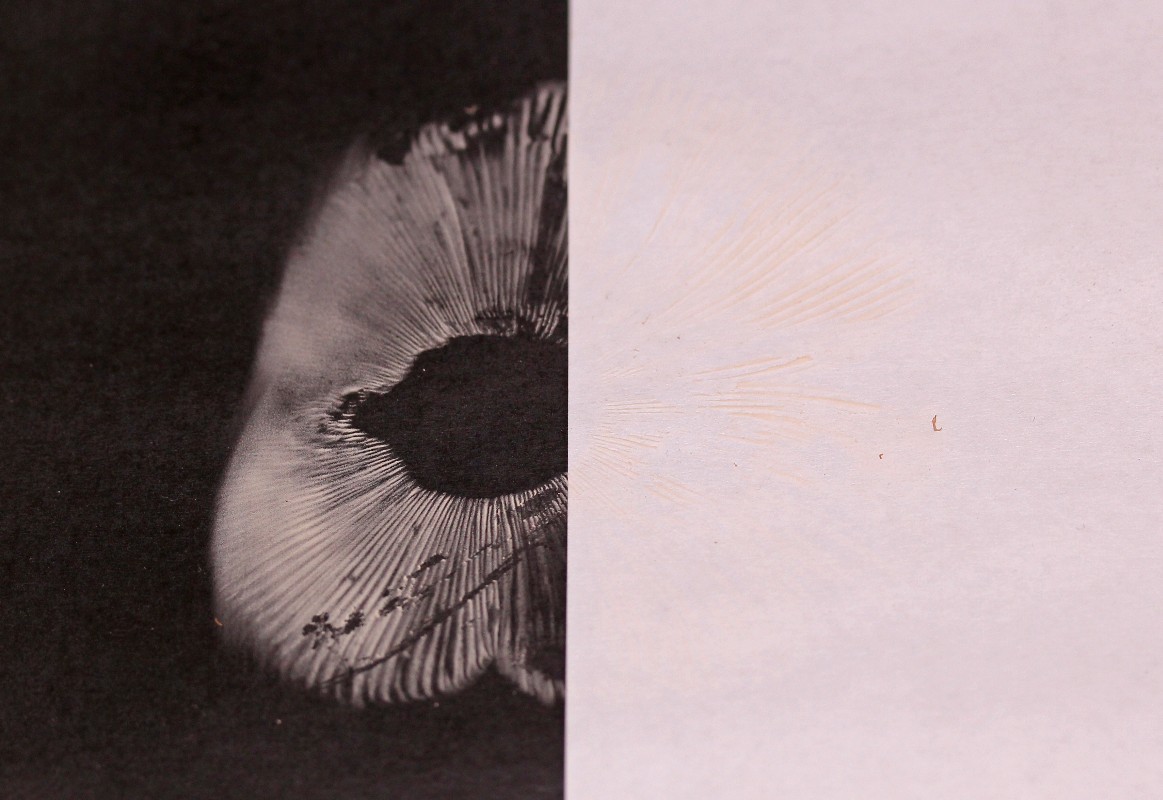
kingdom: Fungi
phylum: Basidiomycota
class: Agaricomycetes
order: Russulales
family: Russulaceae
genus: Russula
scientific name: Russula parazurea
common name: blågrå skørhat
